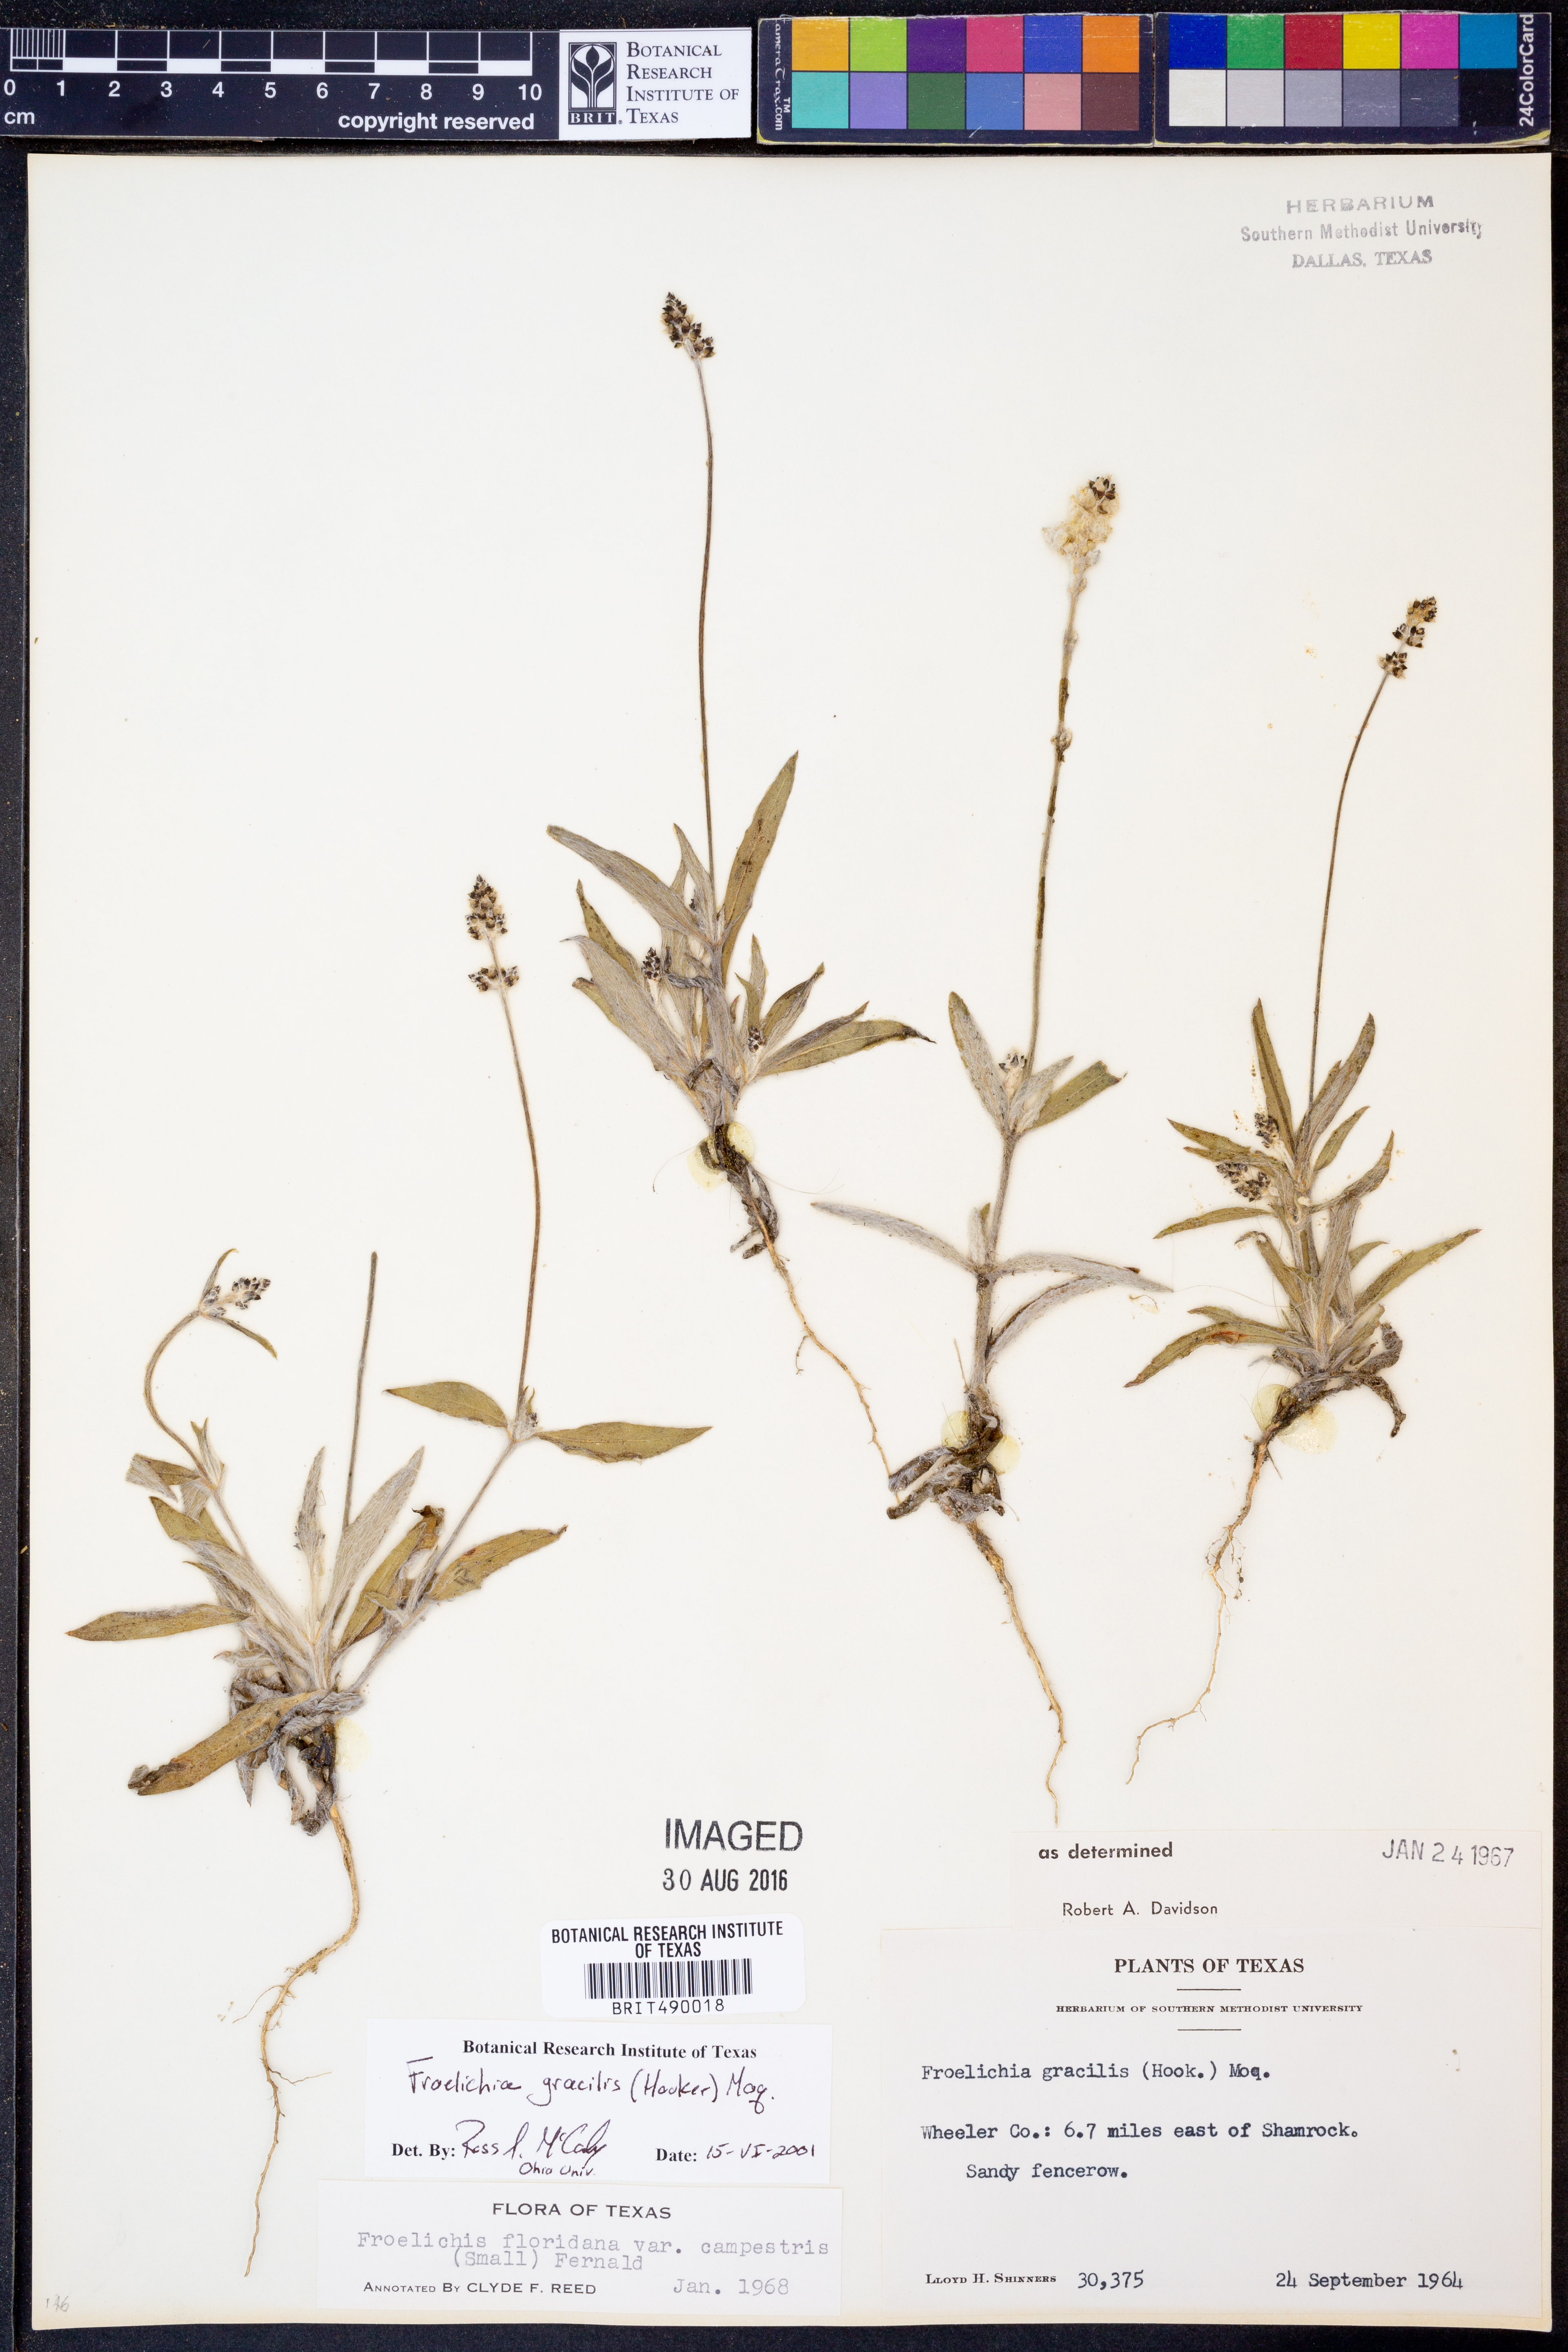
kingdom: Plantae
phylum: Tracheophyta
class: Magnoliopsida
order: Caryophyllales
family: Amaranthaceae
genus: Froelichia
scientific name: Froelichia gracilis
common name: Slender cottonweed
